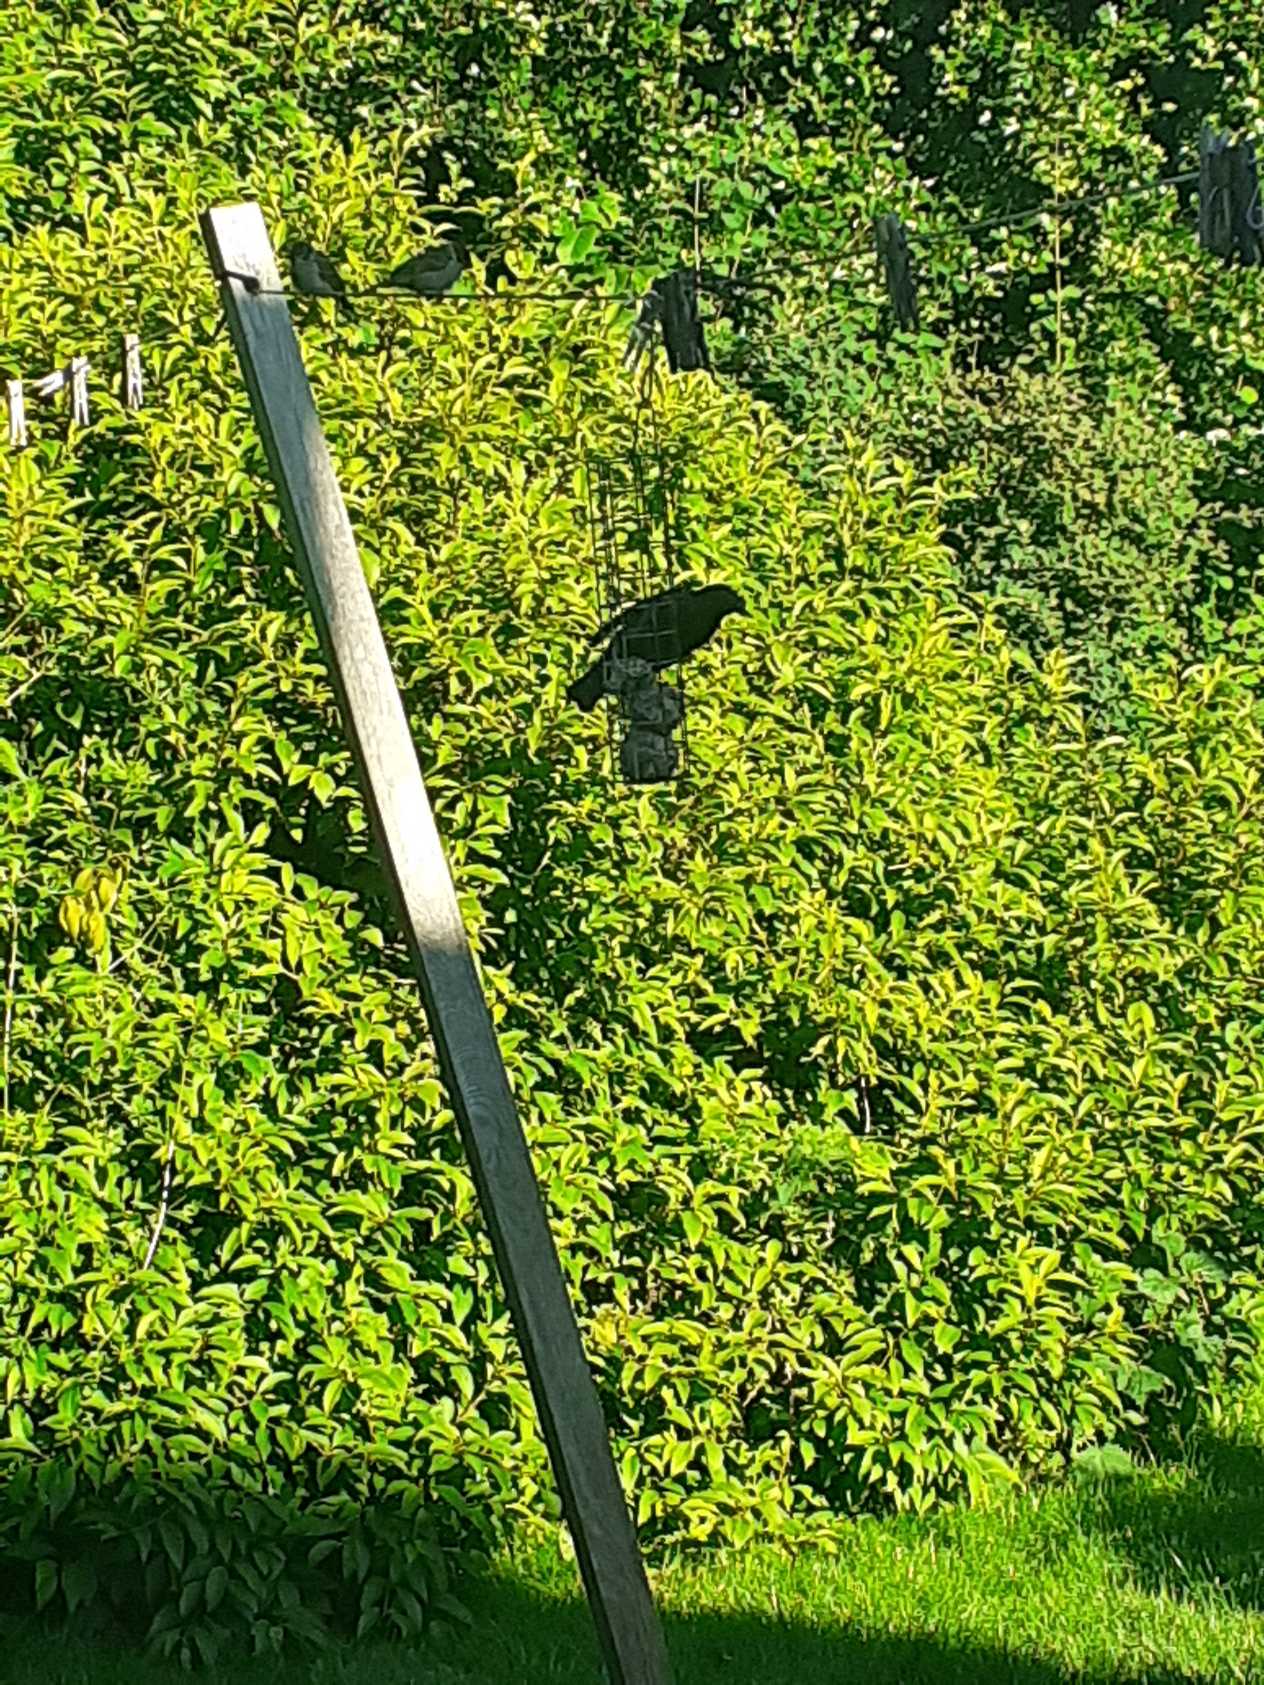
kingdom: Animalia
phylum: Chordata
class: Aves
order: Passeriformes
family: Sturnidae
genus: Sturnus
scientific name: Sturnus vulgaris
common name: Stær
